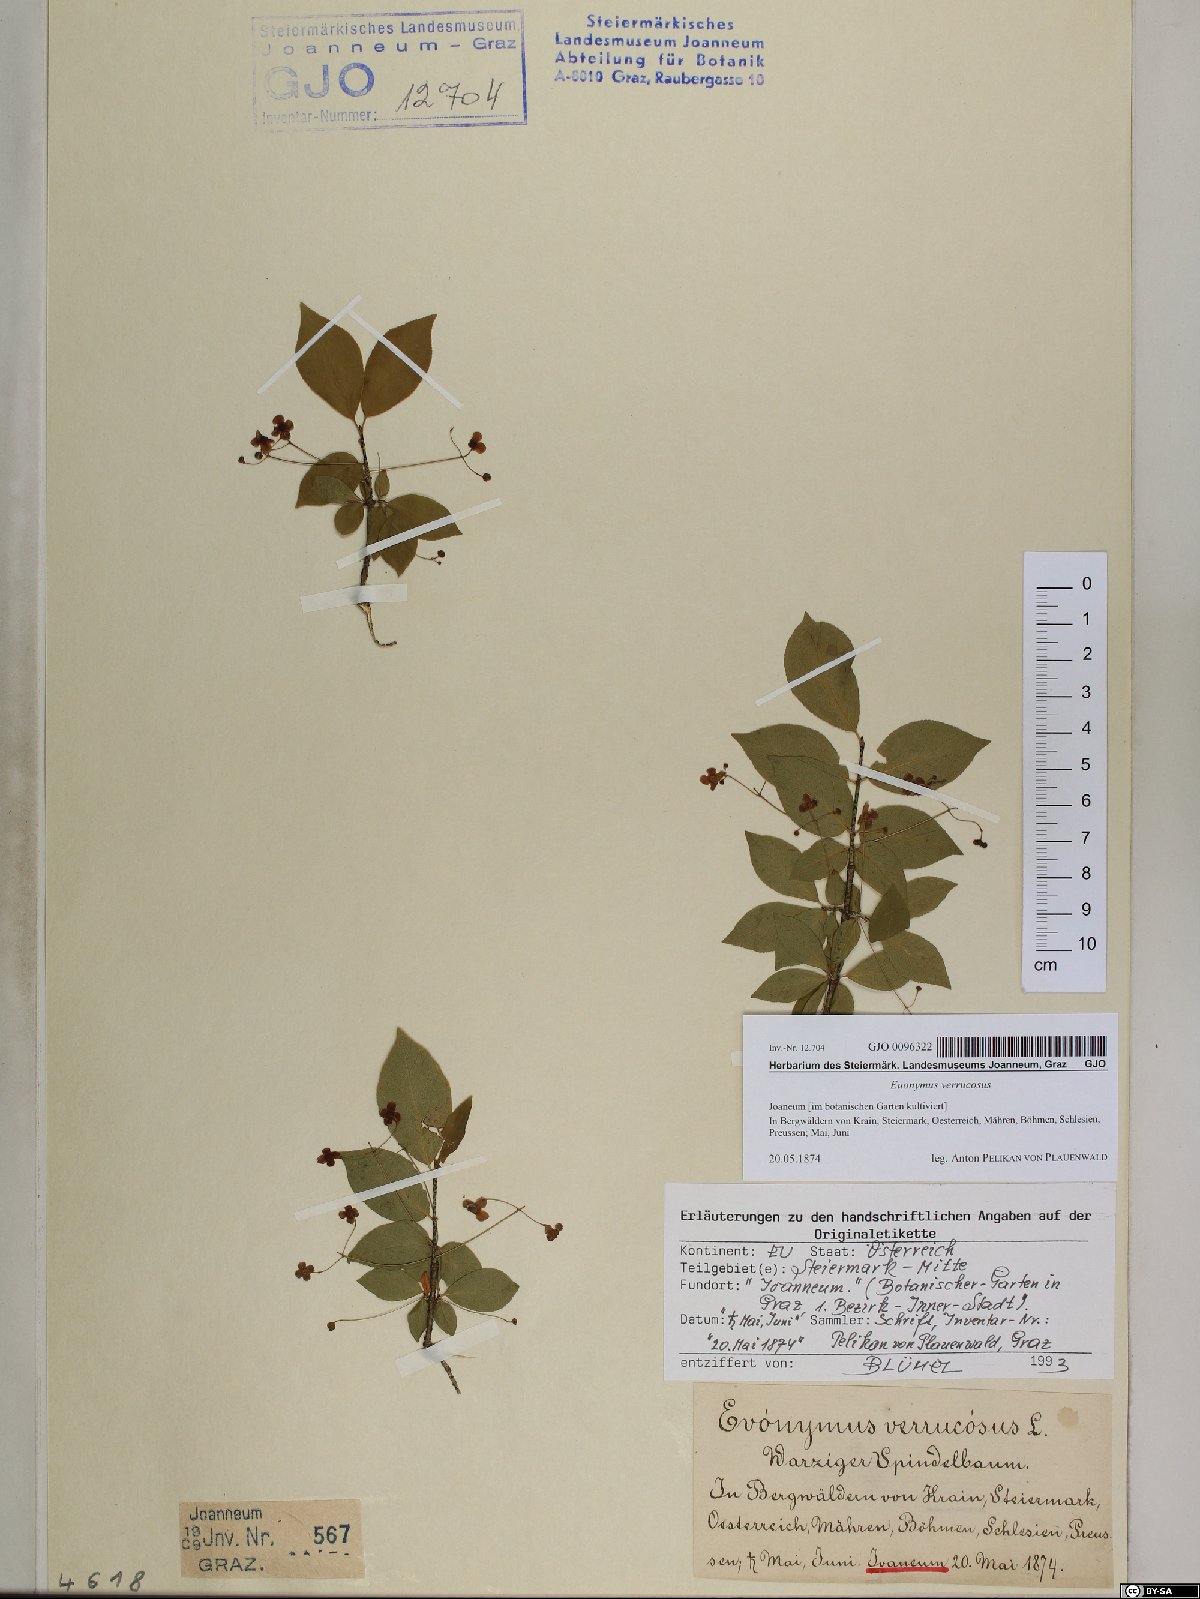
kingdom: Plantae
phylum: Tracheophyta
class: Magnoliopsida
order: Celastrales
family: Celastraceae
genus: Euonymus
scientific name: Euonymus verrucosus
